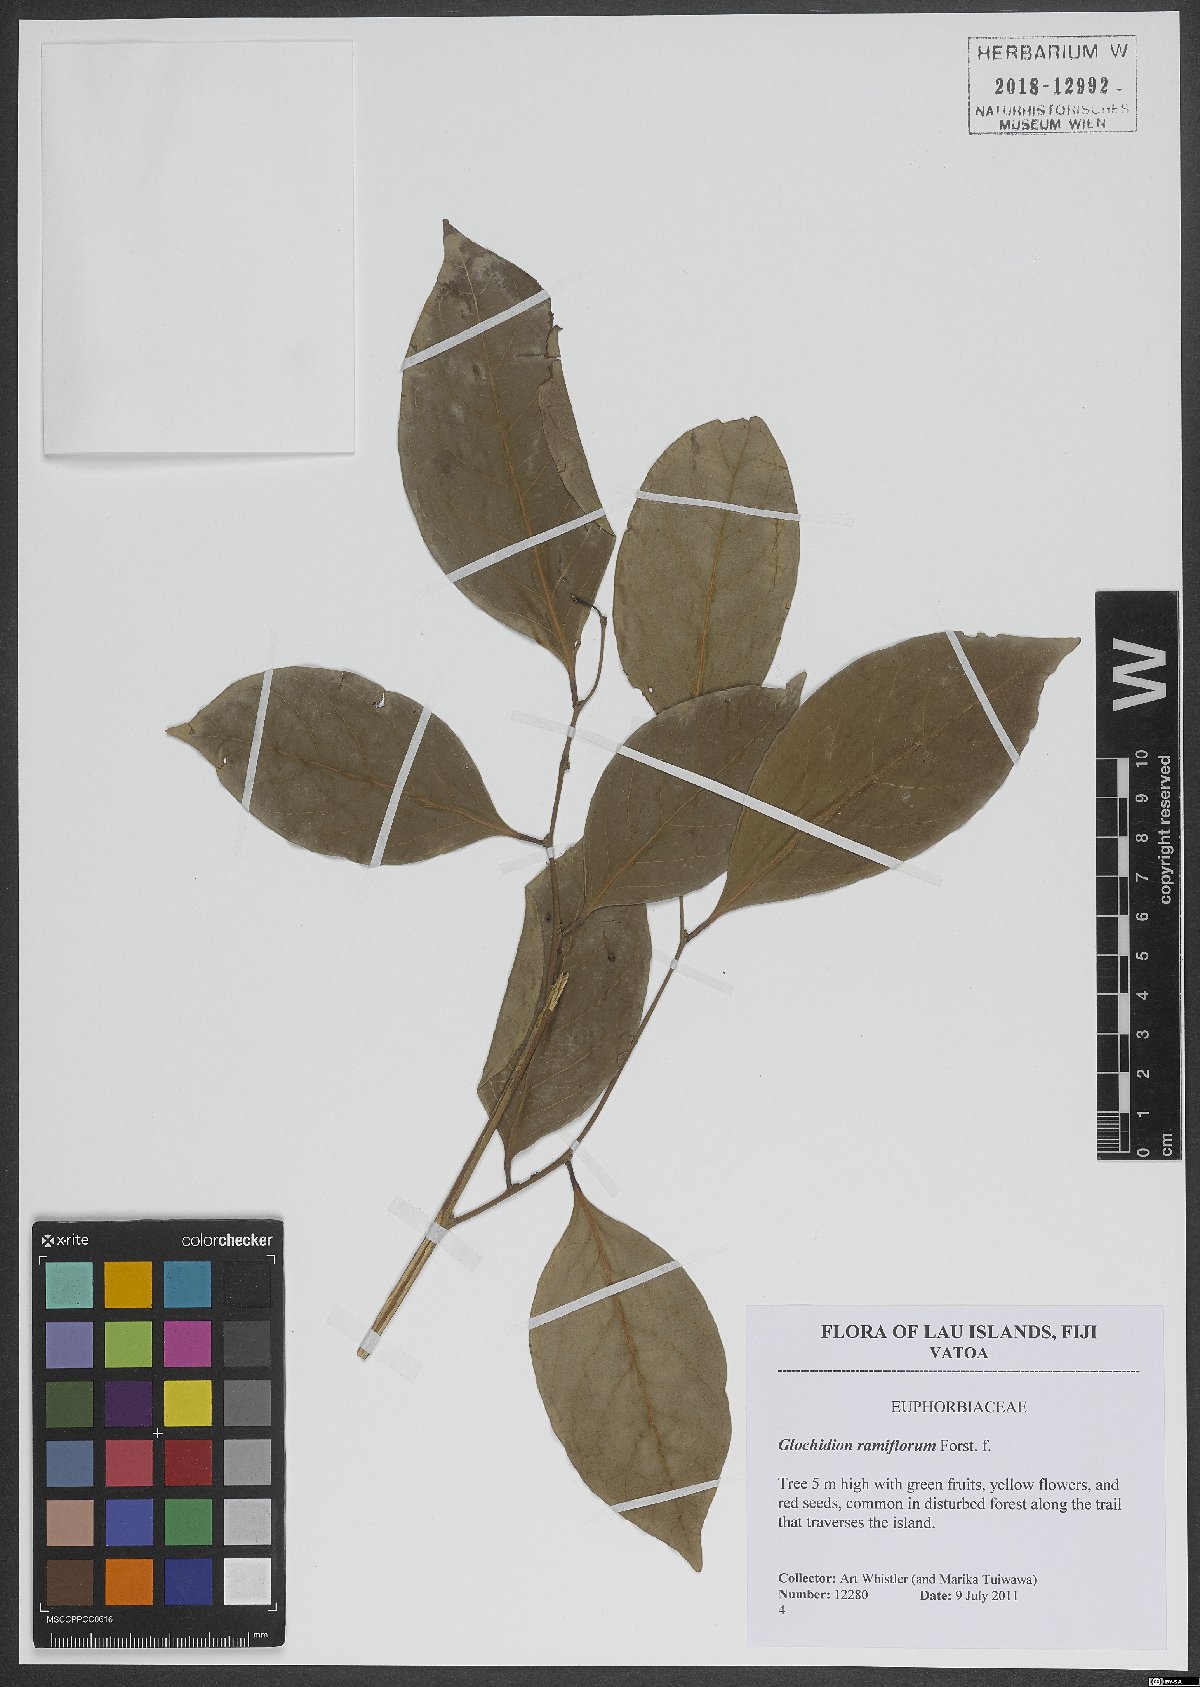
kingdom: Plantae
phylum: Tracheophyta
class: Magnoliopsida
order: Malpighiales
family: Phyllanthaceae
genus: Glochidion
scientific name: Glochidion ramiflorum
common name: Masame
